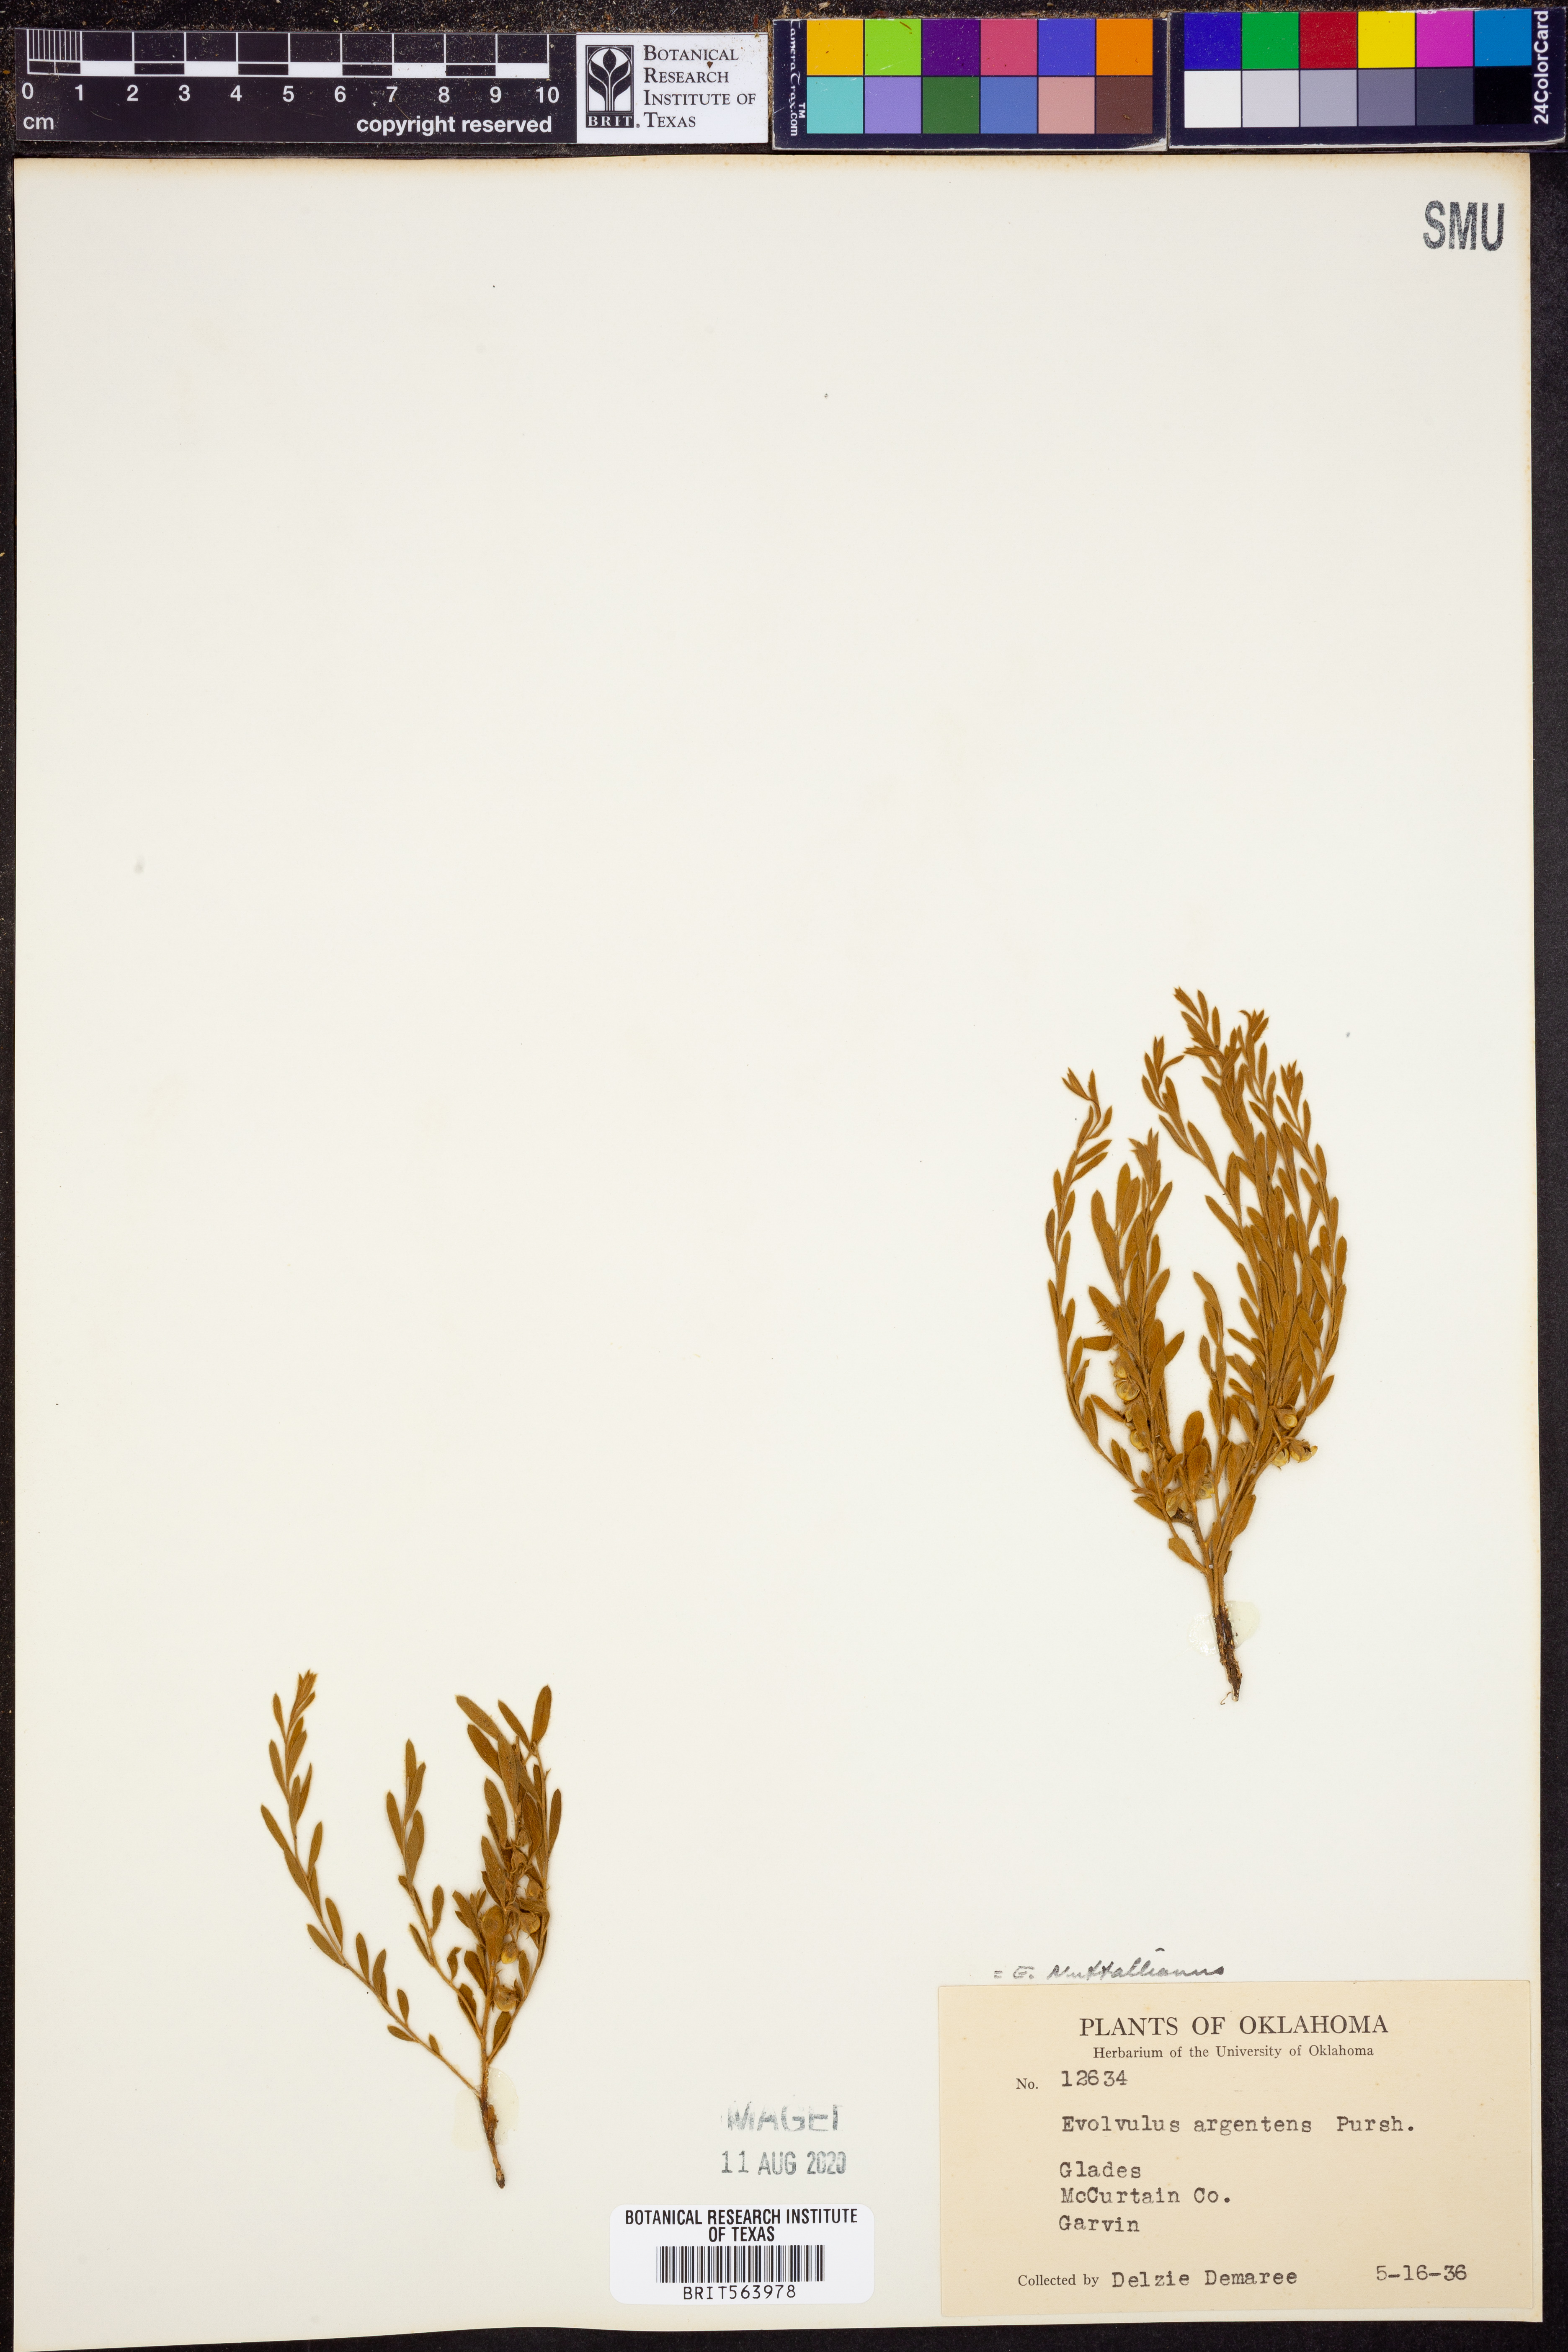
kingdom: Plantae
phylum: Tracheophyta
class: Magnoliopsida
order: Solanales
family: Convolvulaceae
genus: Evolvulus
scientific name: Evolvulus nuttallianus
